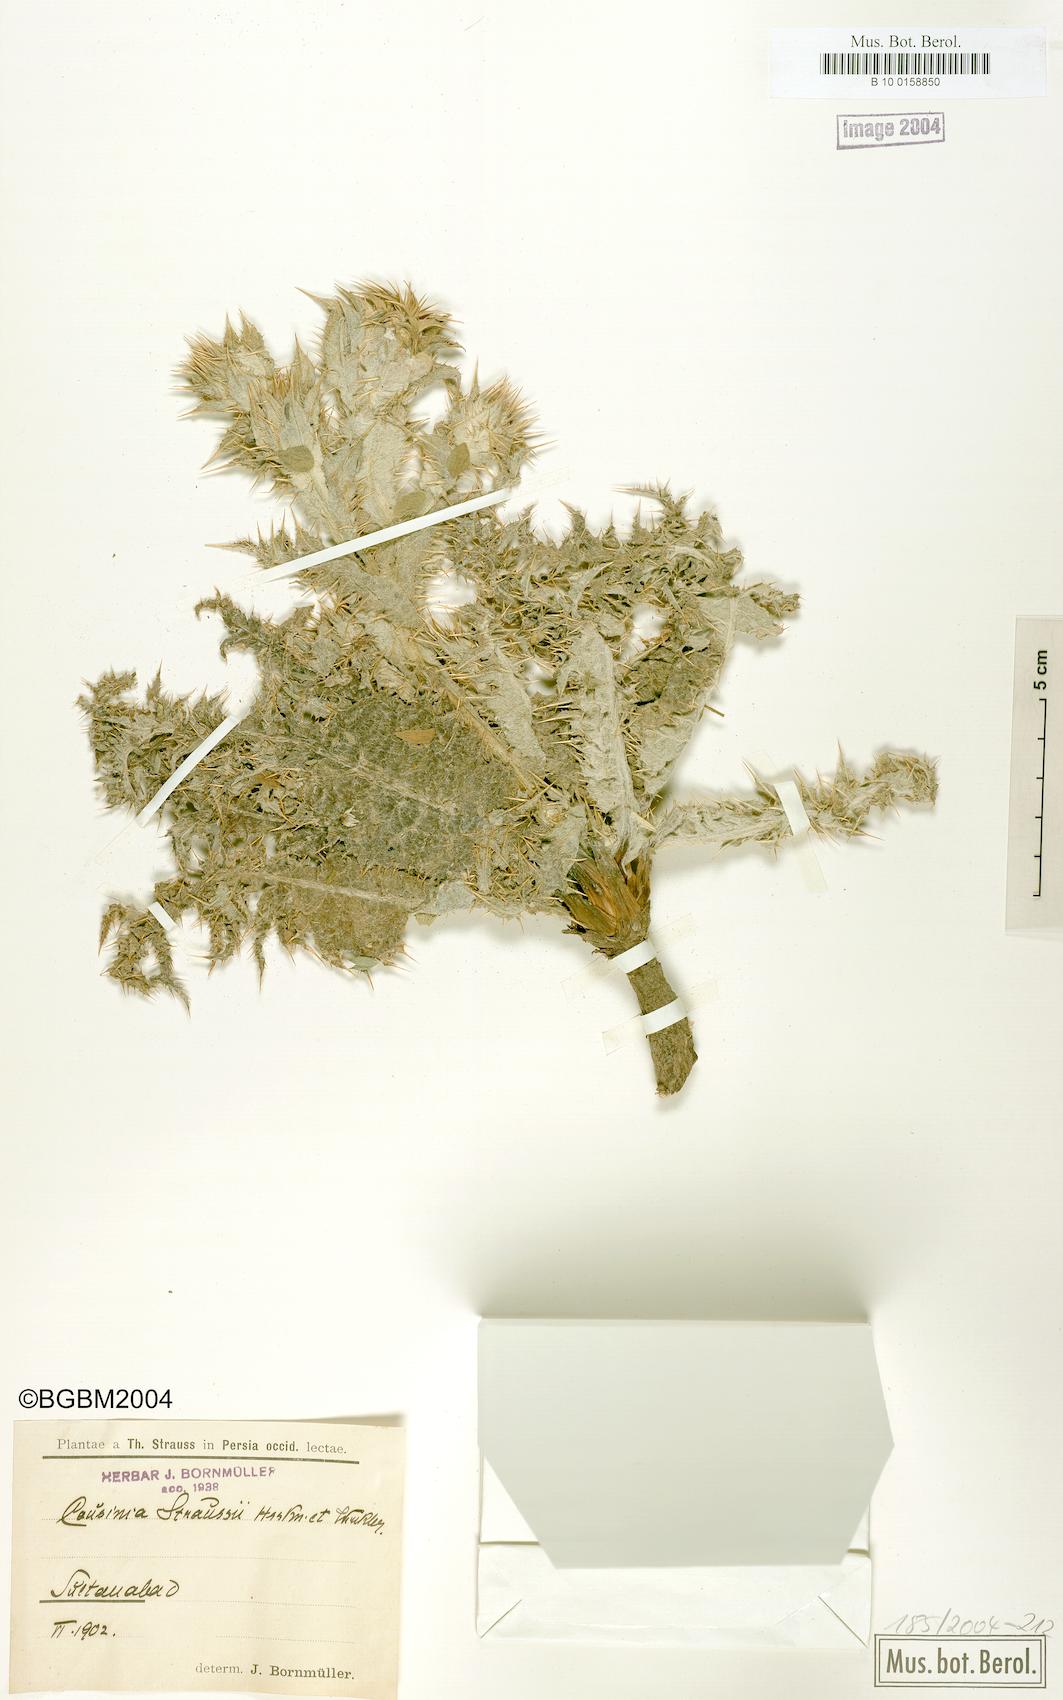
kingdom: Plantae
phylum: Tracheophyta
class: Magnoliopsida
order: Asterales
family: Asteraceae
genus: Cousinia
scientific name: Cousinia inflata
